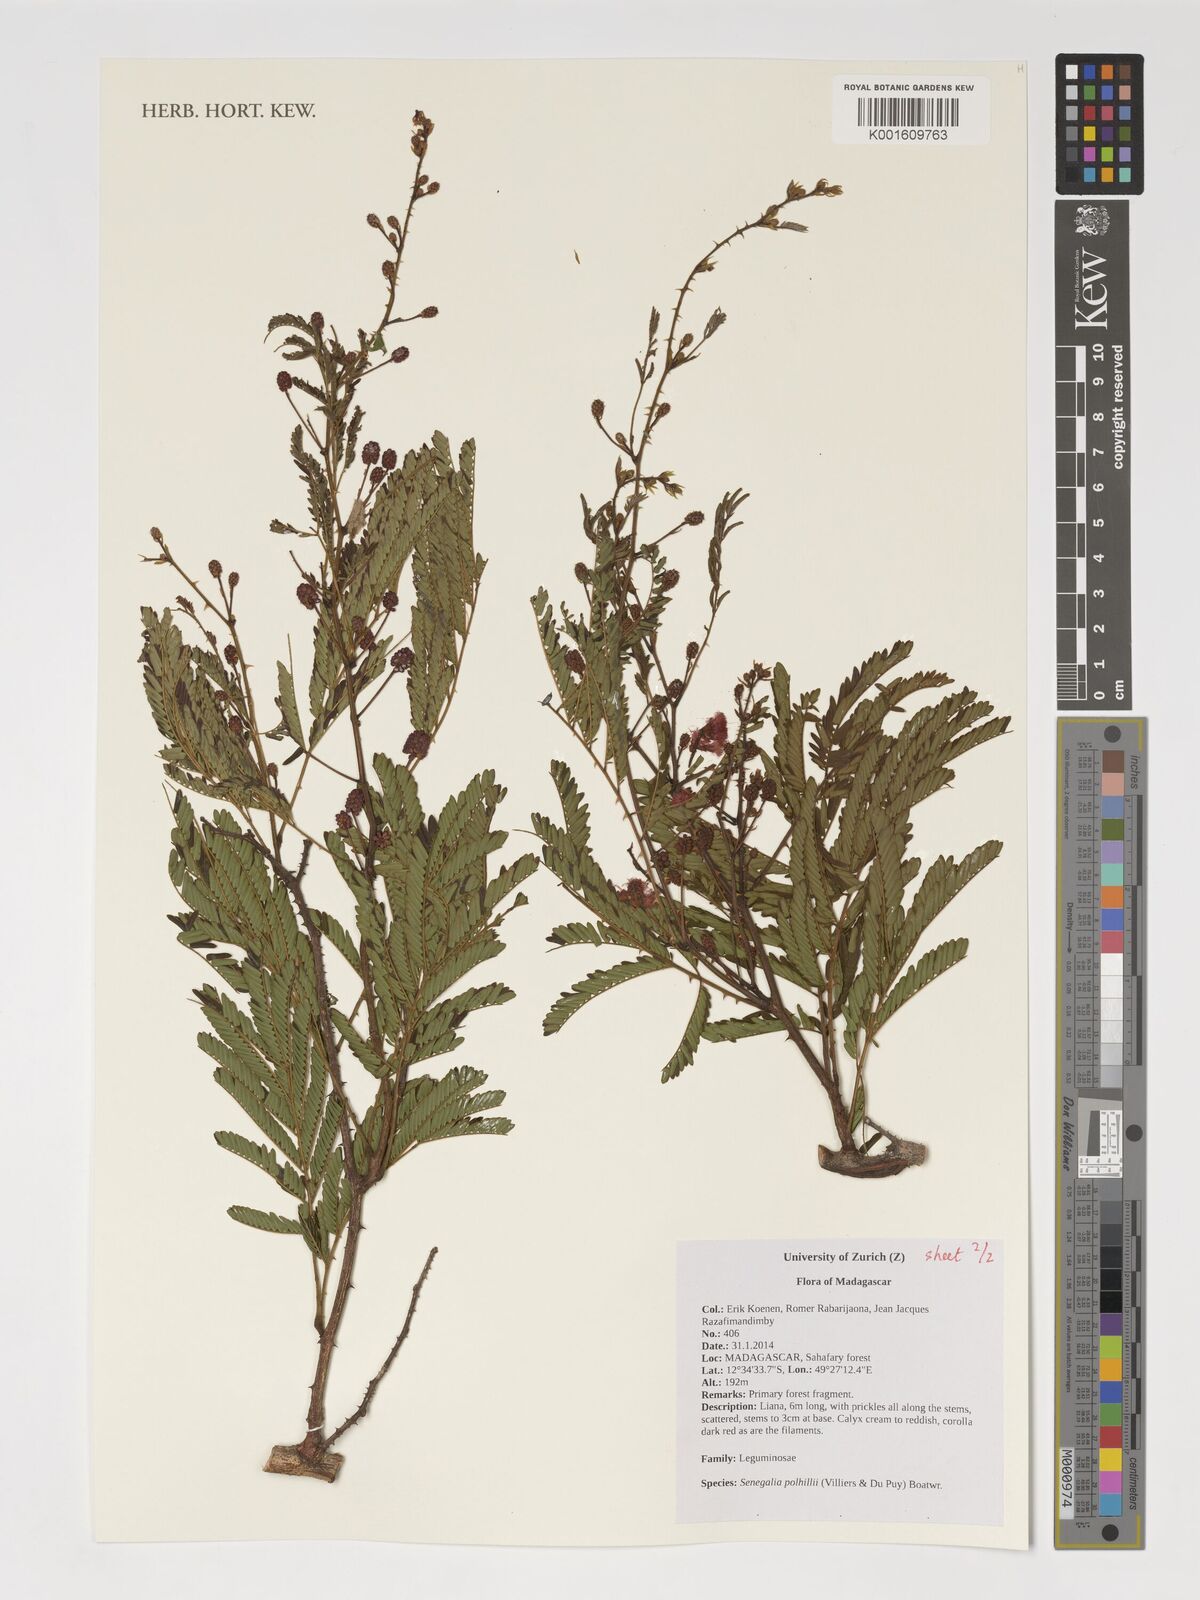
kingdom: Plantae
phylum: Tracheophyta
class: Magnoliopsida
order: Fabales
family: Fabaceae
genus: Senegalia
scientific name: Senegalia polhillii
